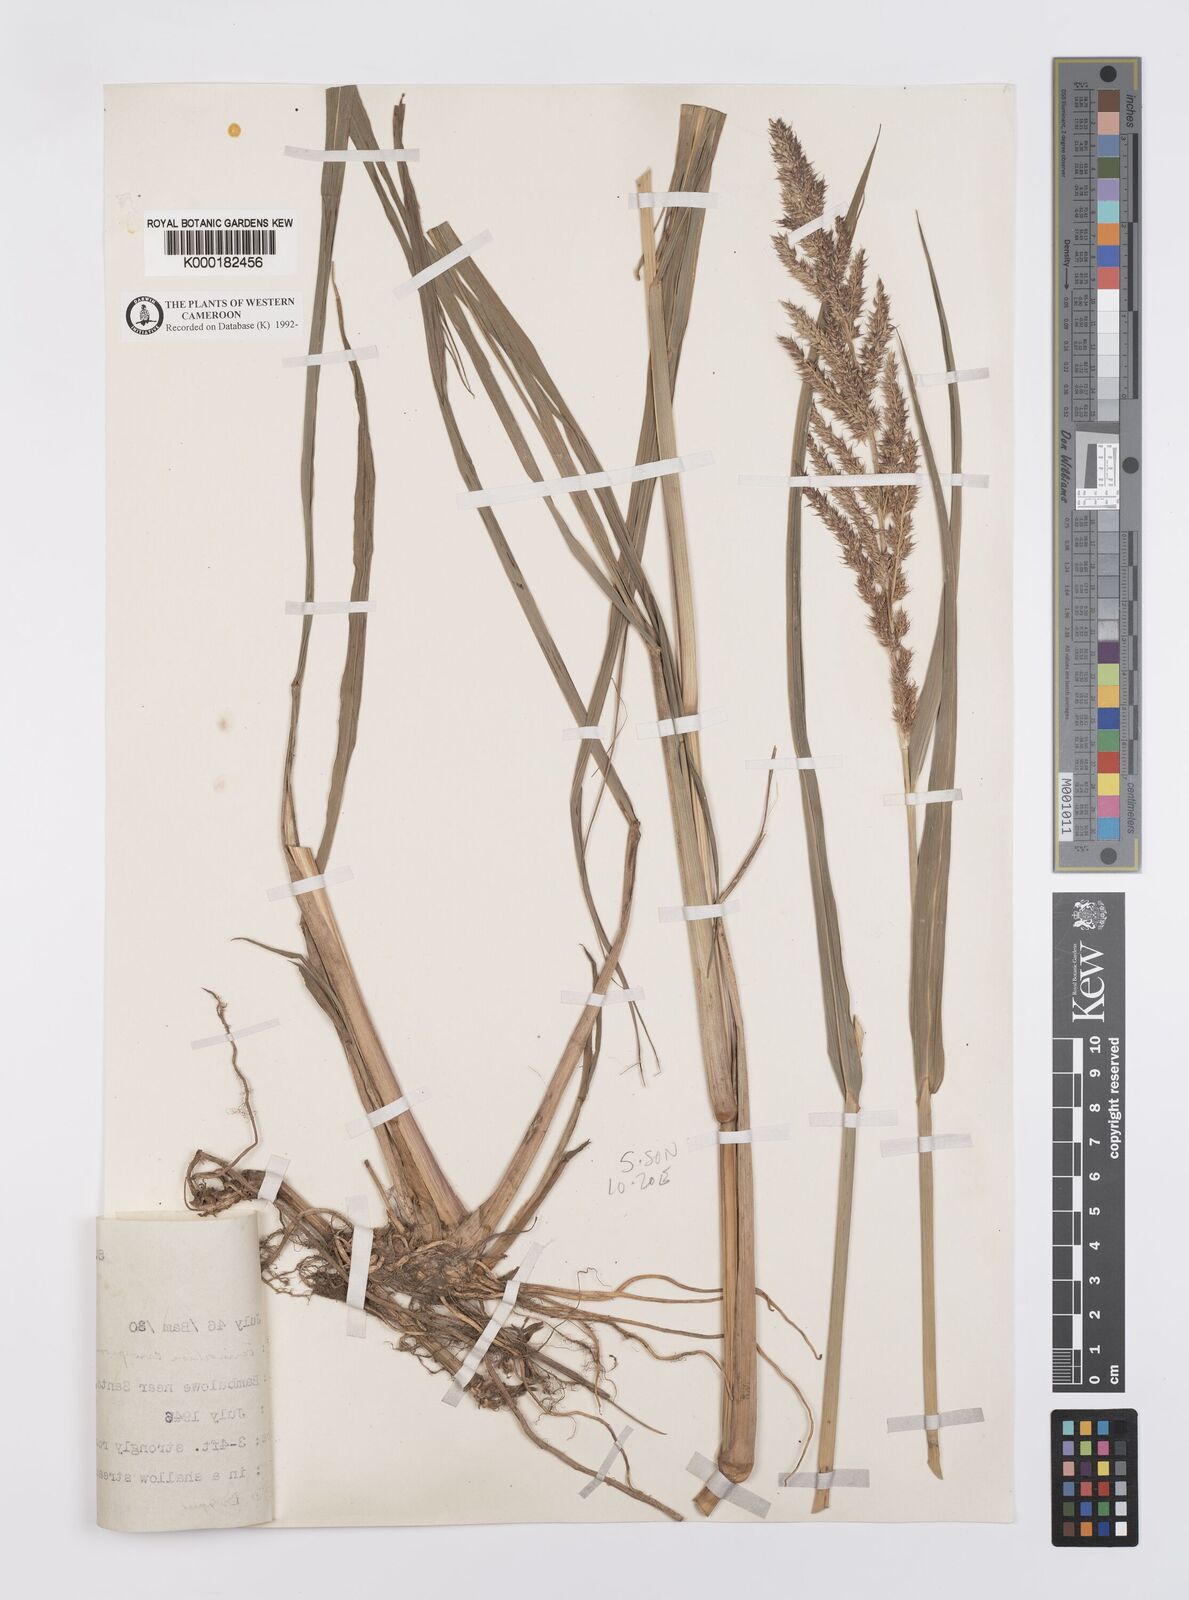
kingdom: Plantae
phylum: Tracheophyta
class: Liliopsida
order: Poales
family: Poaceae
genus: Echinochloa
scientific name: Echinochloa crus-pavonis
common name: Gulf cockspur grass
